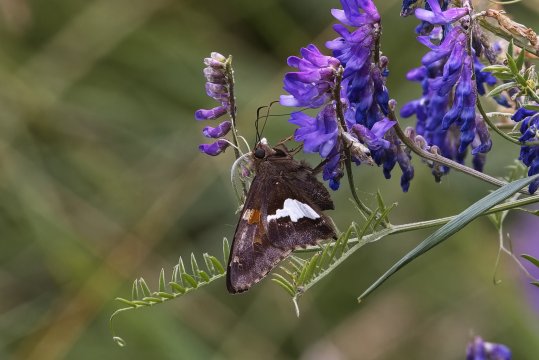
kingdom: Animalia
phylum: Arthropoda
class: Insecta
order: Lepidoptera
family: Hesperiidae
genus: Epargyreus
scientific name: Epargyreus clarus
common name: Silver-spotted Skipper
